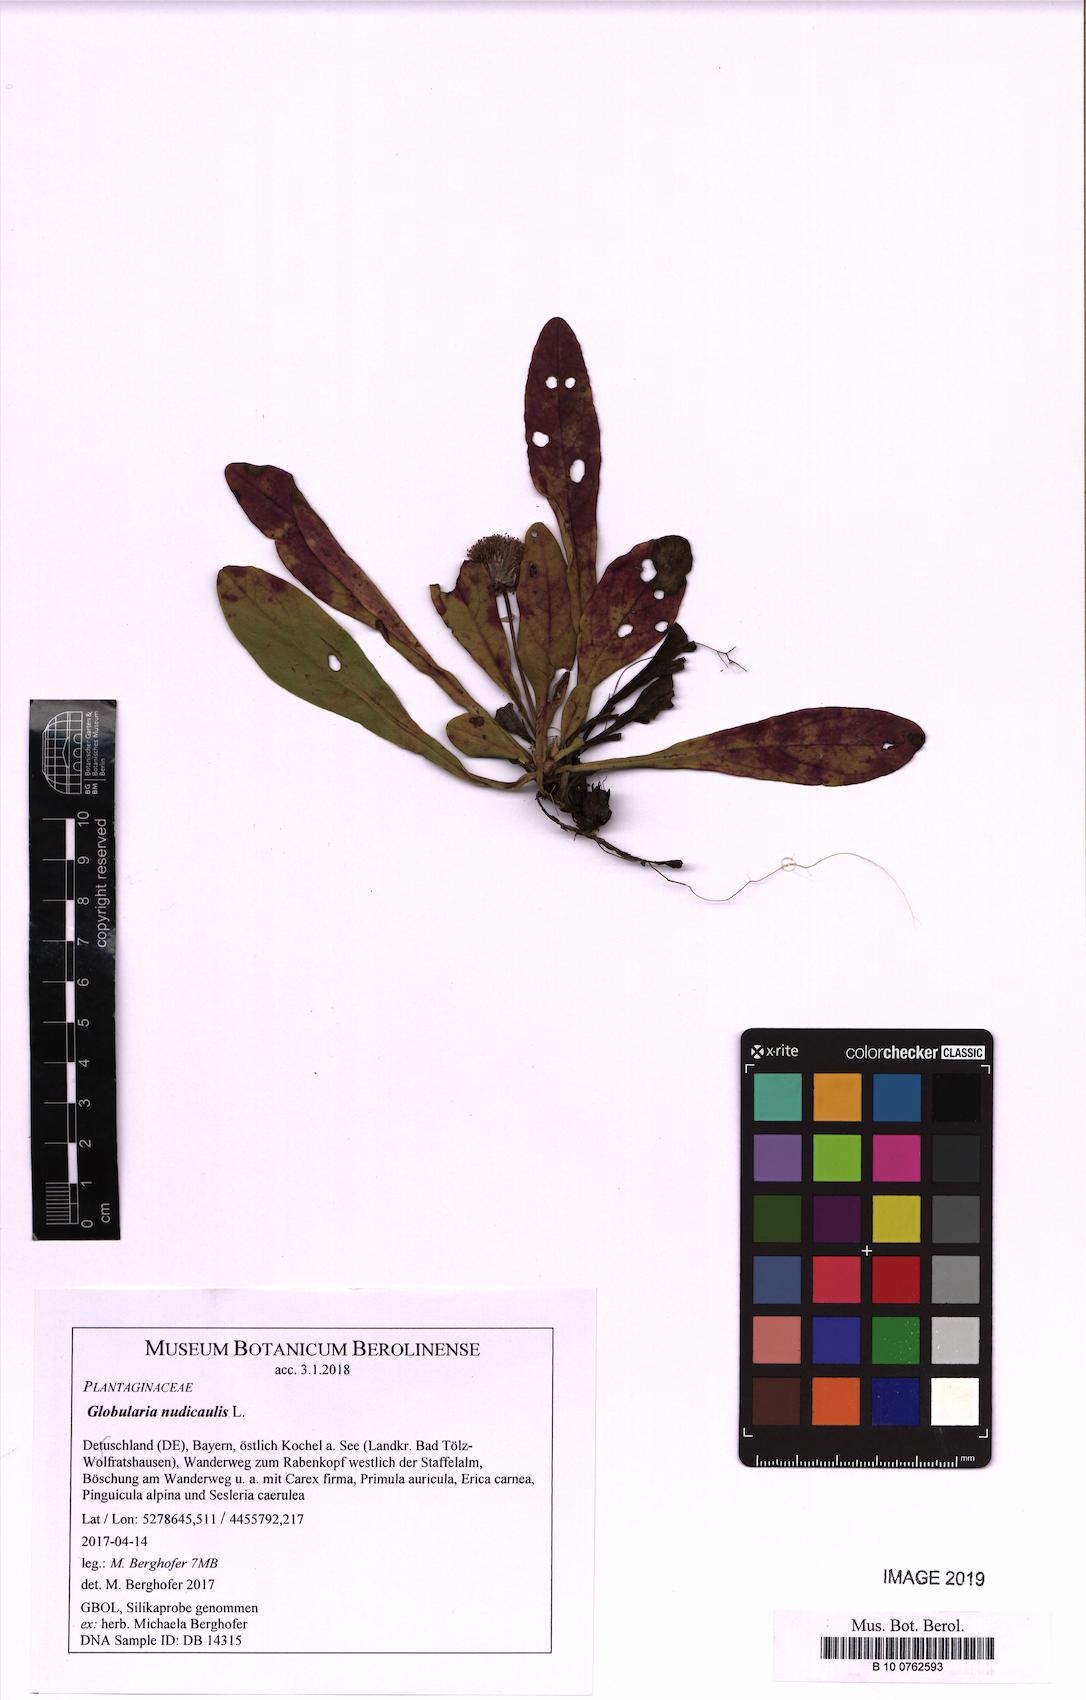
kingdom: Plantae
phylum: Tracheophyta
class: Magnoliopsida
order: Lamiales
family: Plantaginaceae
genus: Globularia
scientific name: Globularia nudicaulis
